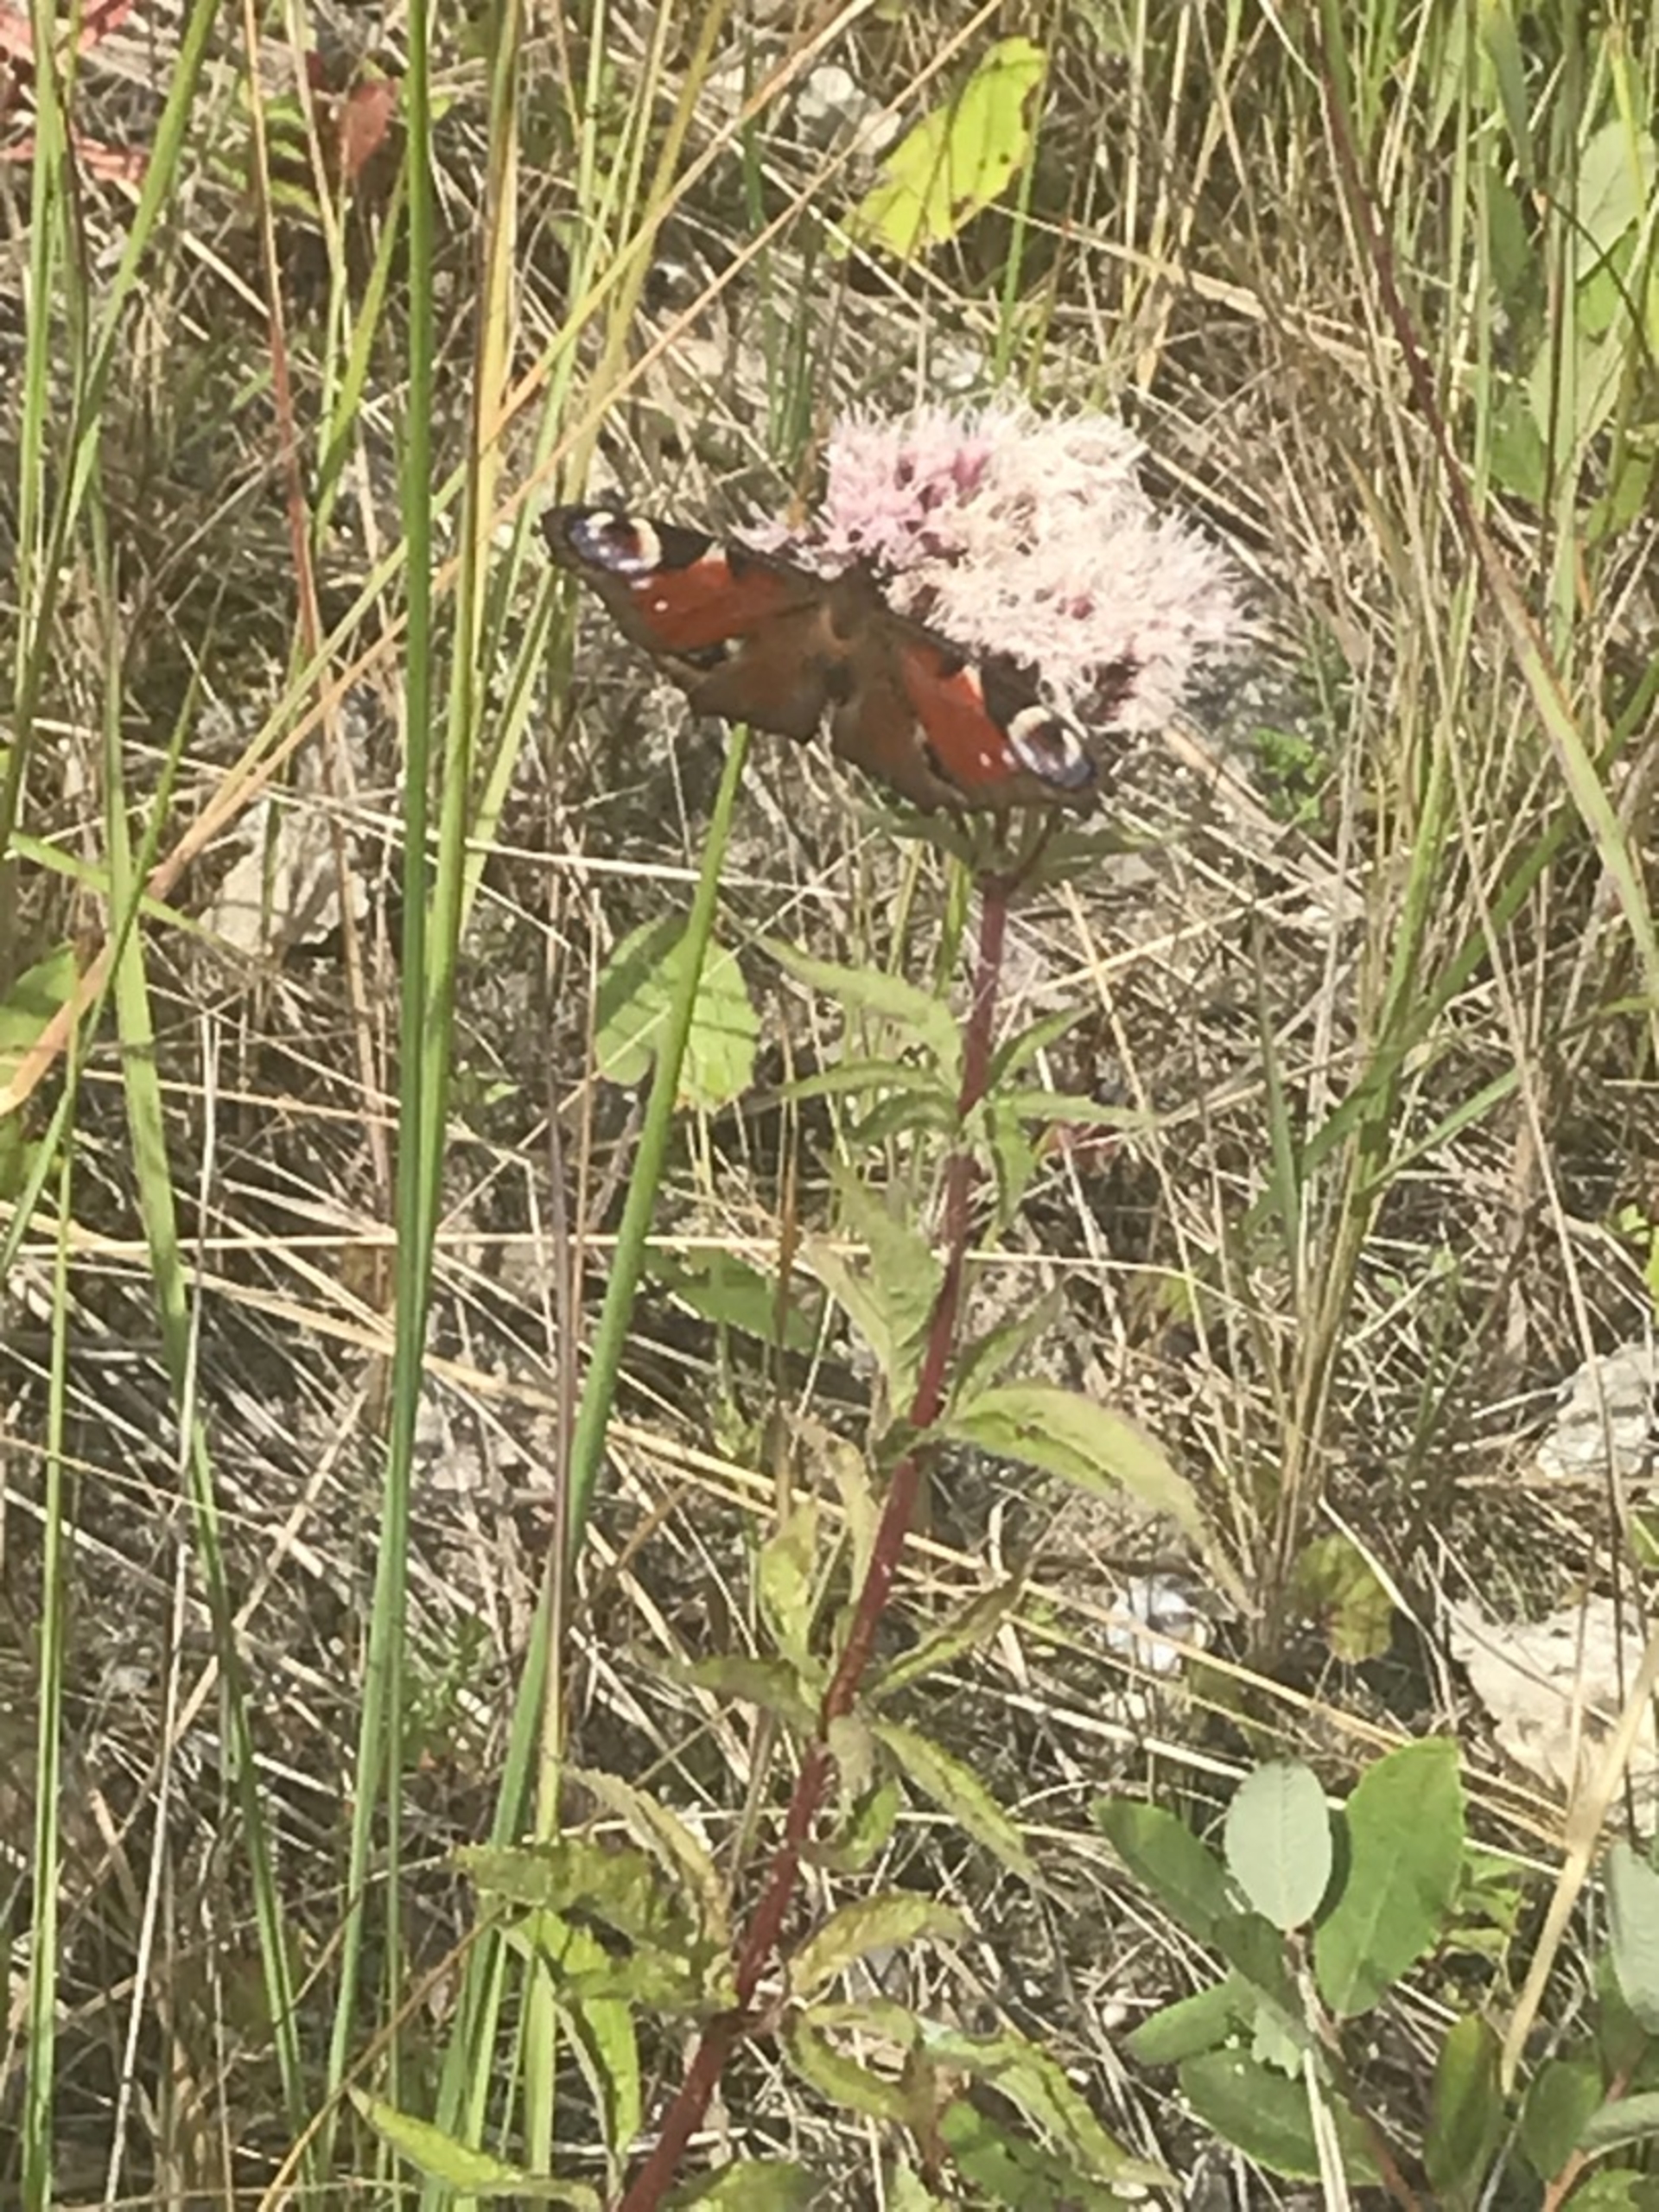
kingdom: Animalia
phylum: Arthropoda
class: Insecta
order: Lepidoptera
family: Nymphalidae
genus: Aglais
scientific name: Aglais io
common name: Dagpåfugleøje
